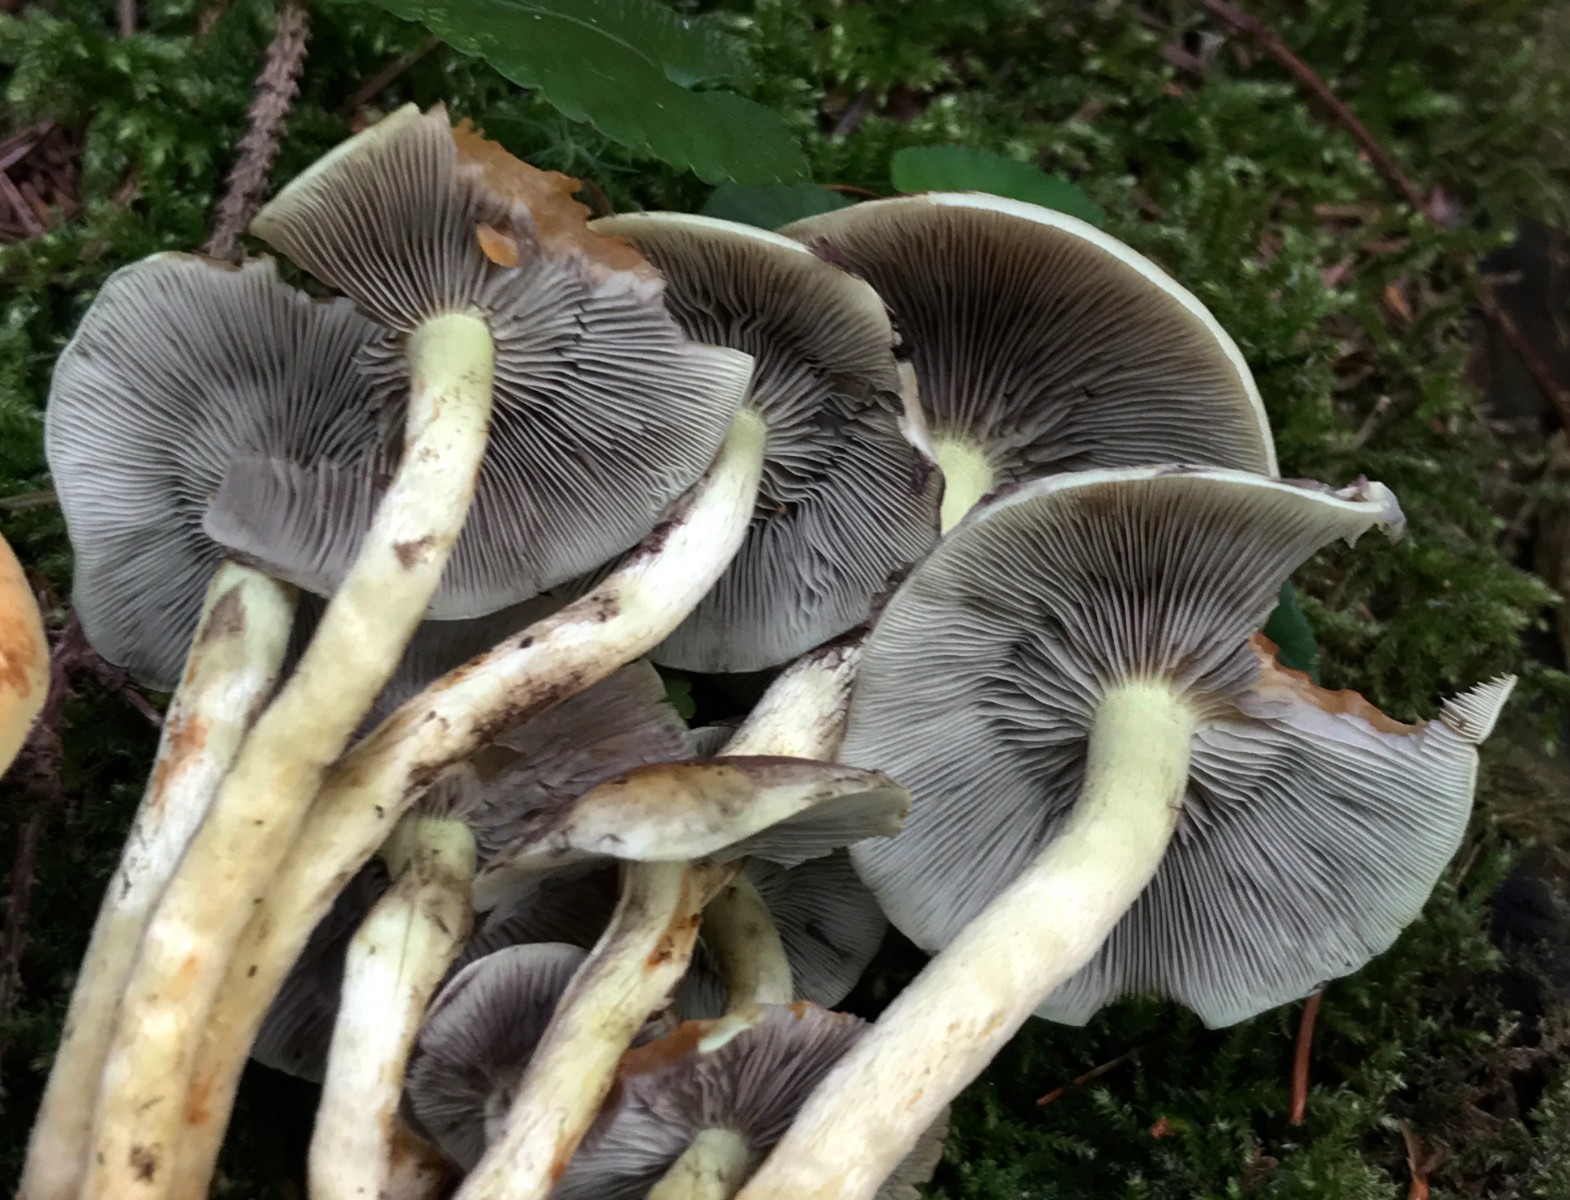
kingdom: Fungi
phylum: Basidiomycota
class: Agaricomycetes
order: Agaricales
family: Strophariaceae
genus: Hypholoma
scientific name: Hypholoma fasciculare
